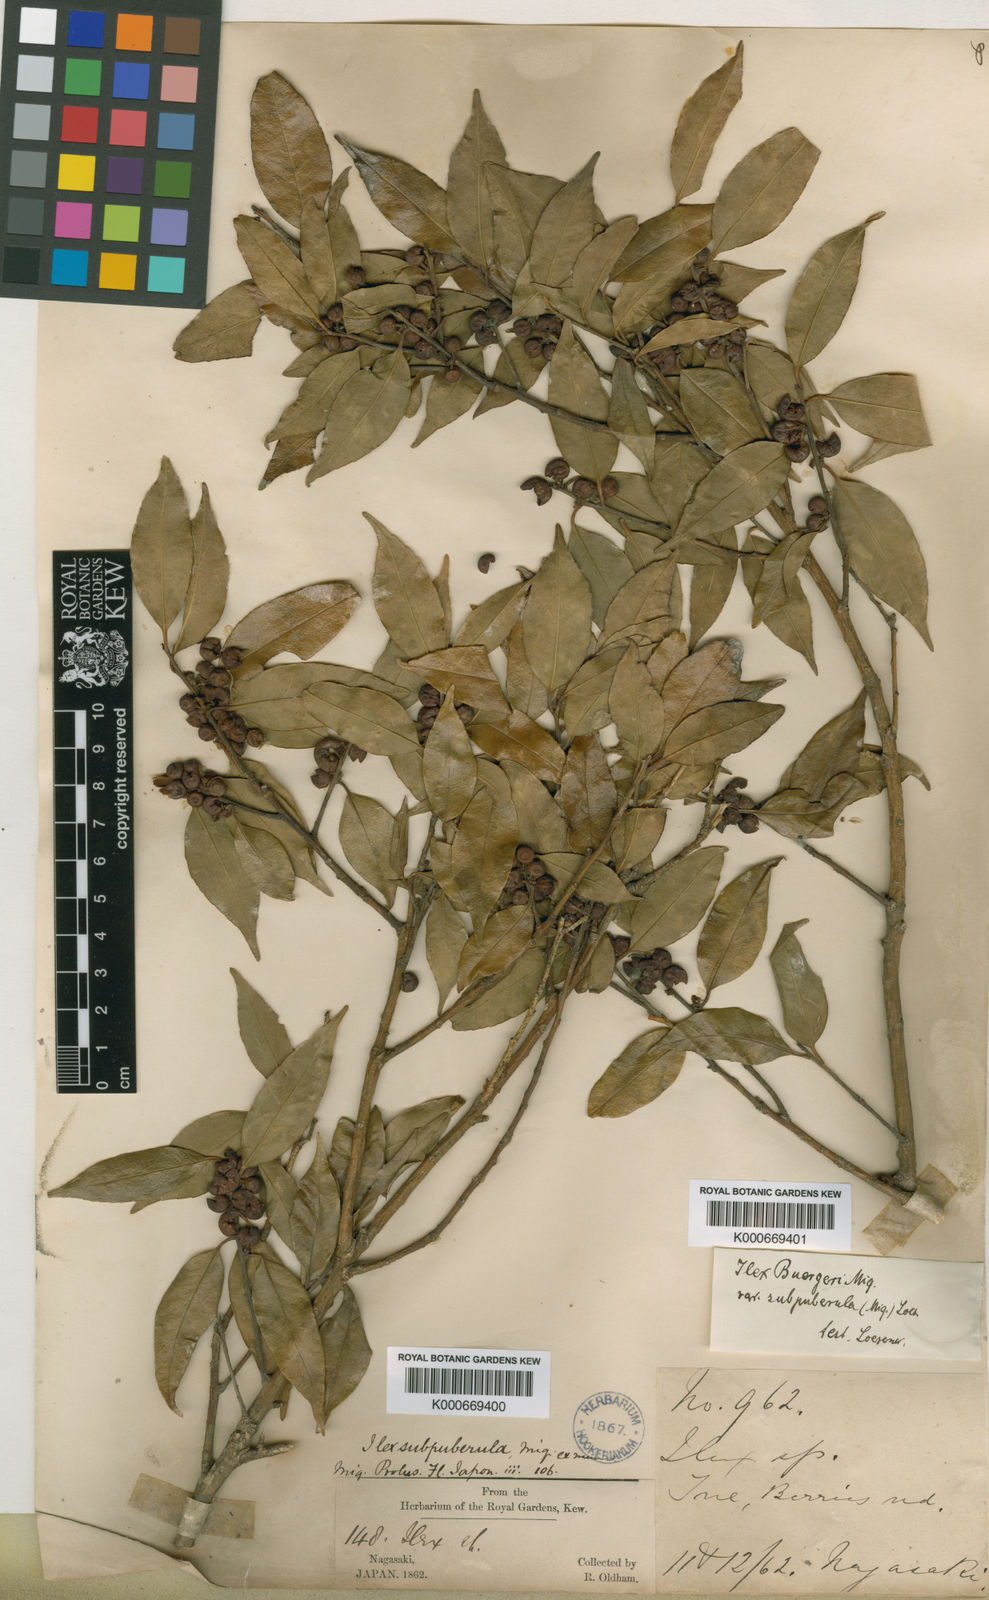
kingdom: Plantae
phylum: Tracheophyta
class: Magnoliopsida
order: Aquifoliales
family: Aquifoliaceae
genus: Ilex
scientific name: Ilex buergeri
